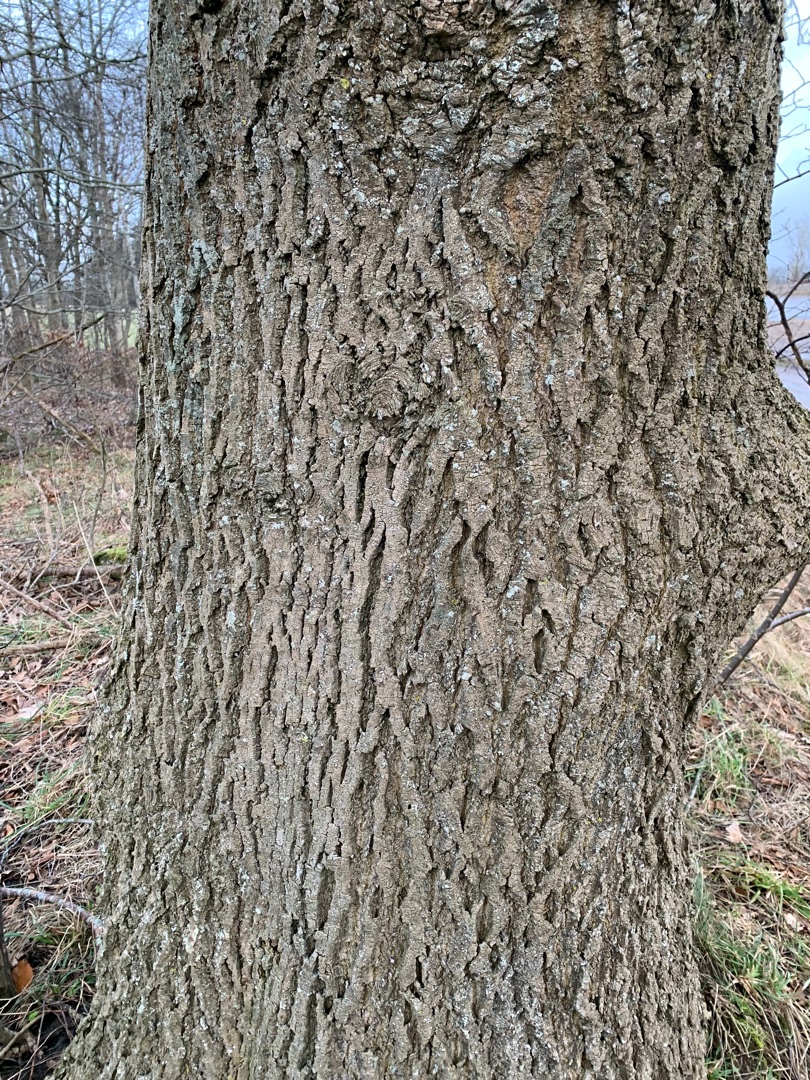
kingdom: Plantae
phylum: Tracheophyta
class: Magnoliopsida
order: Lamiales
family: Oleaceae
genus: Fraxinus
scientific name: Fraxinus excelsior
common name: Ask
